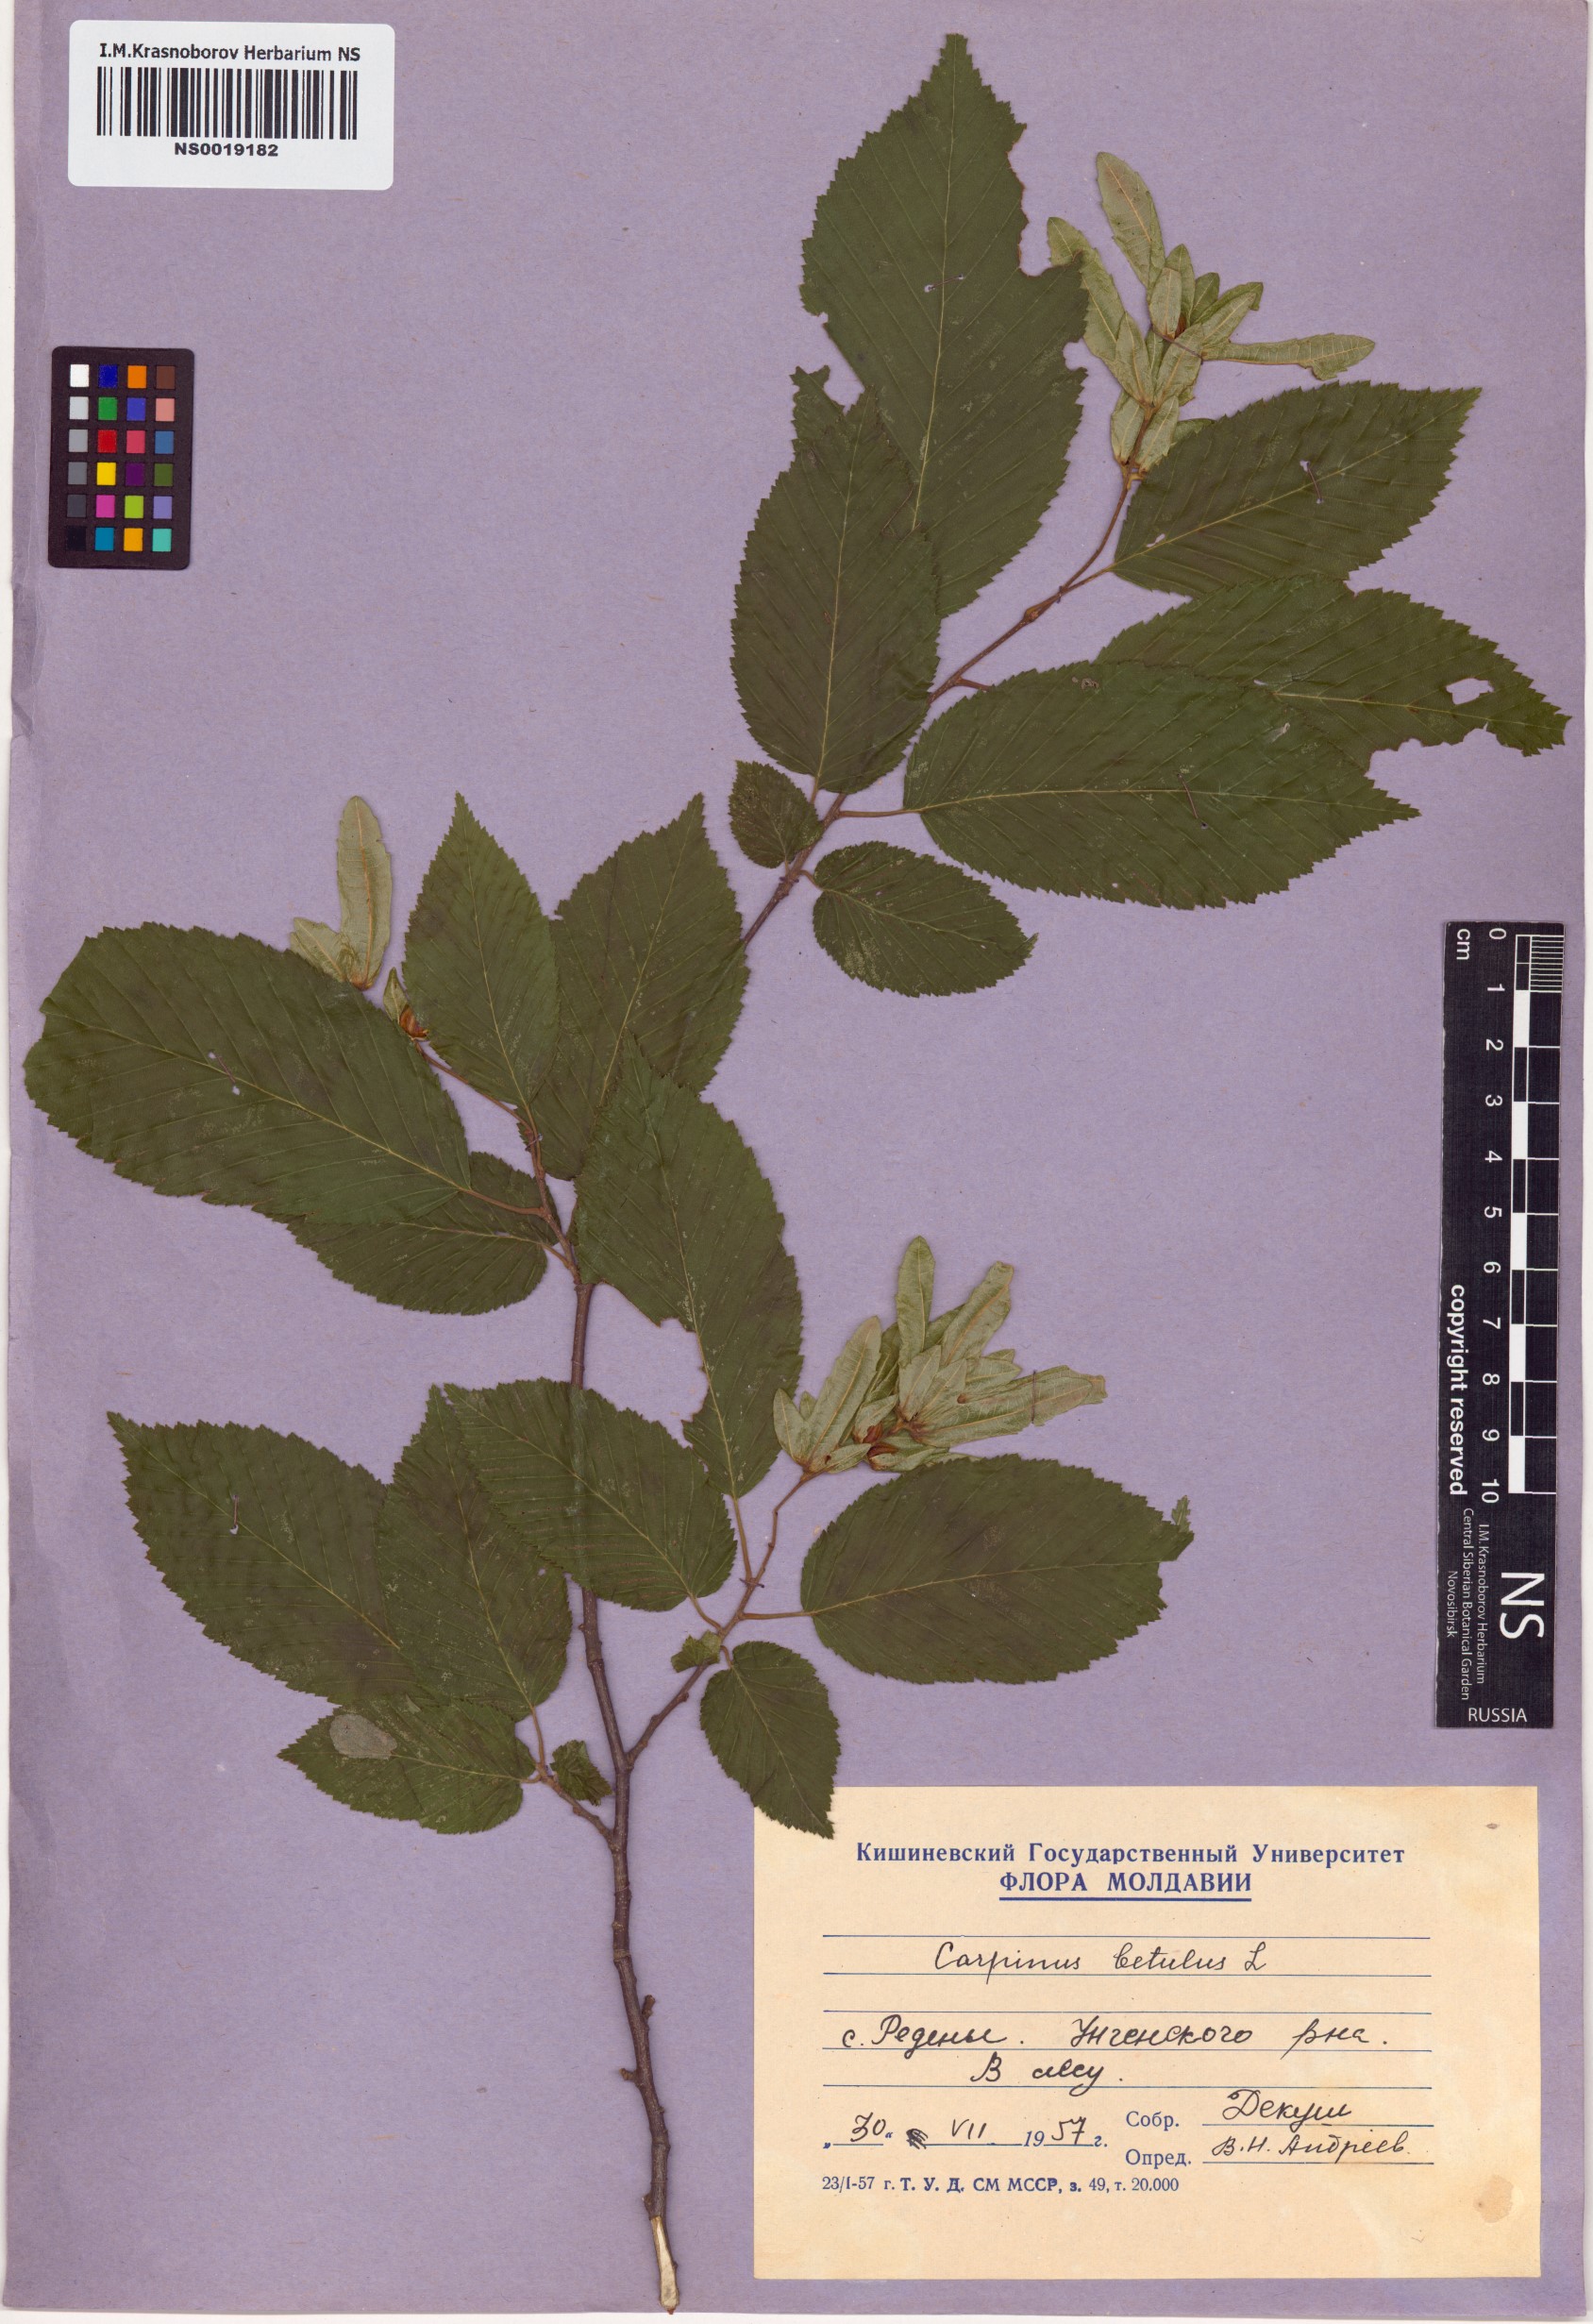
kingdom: Plantae
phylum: Tracheophyta
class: Magnoliopsida
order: Fagales
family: Betulaceae
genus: Carpinus
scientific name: Carpinus betulus
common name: Hornbeam
